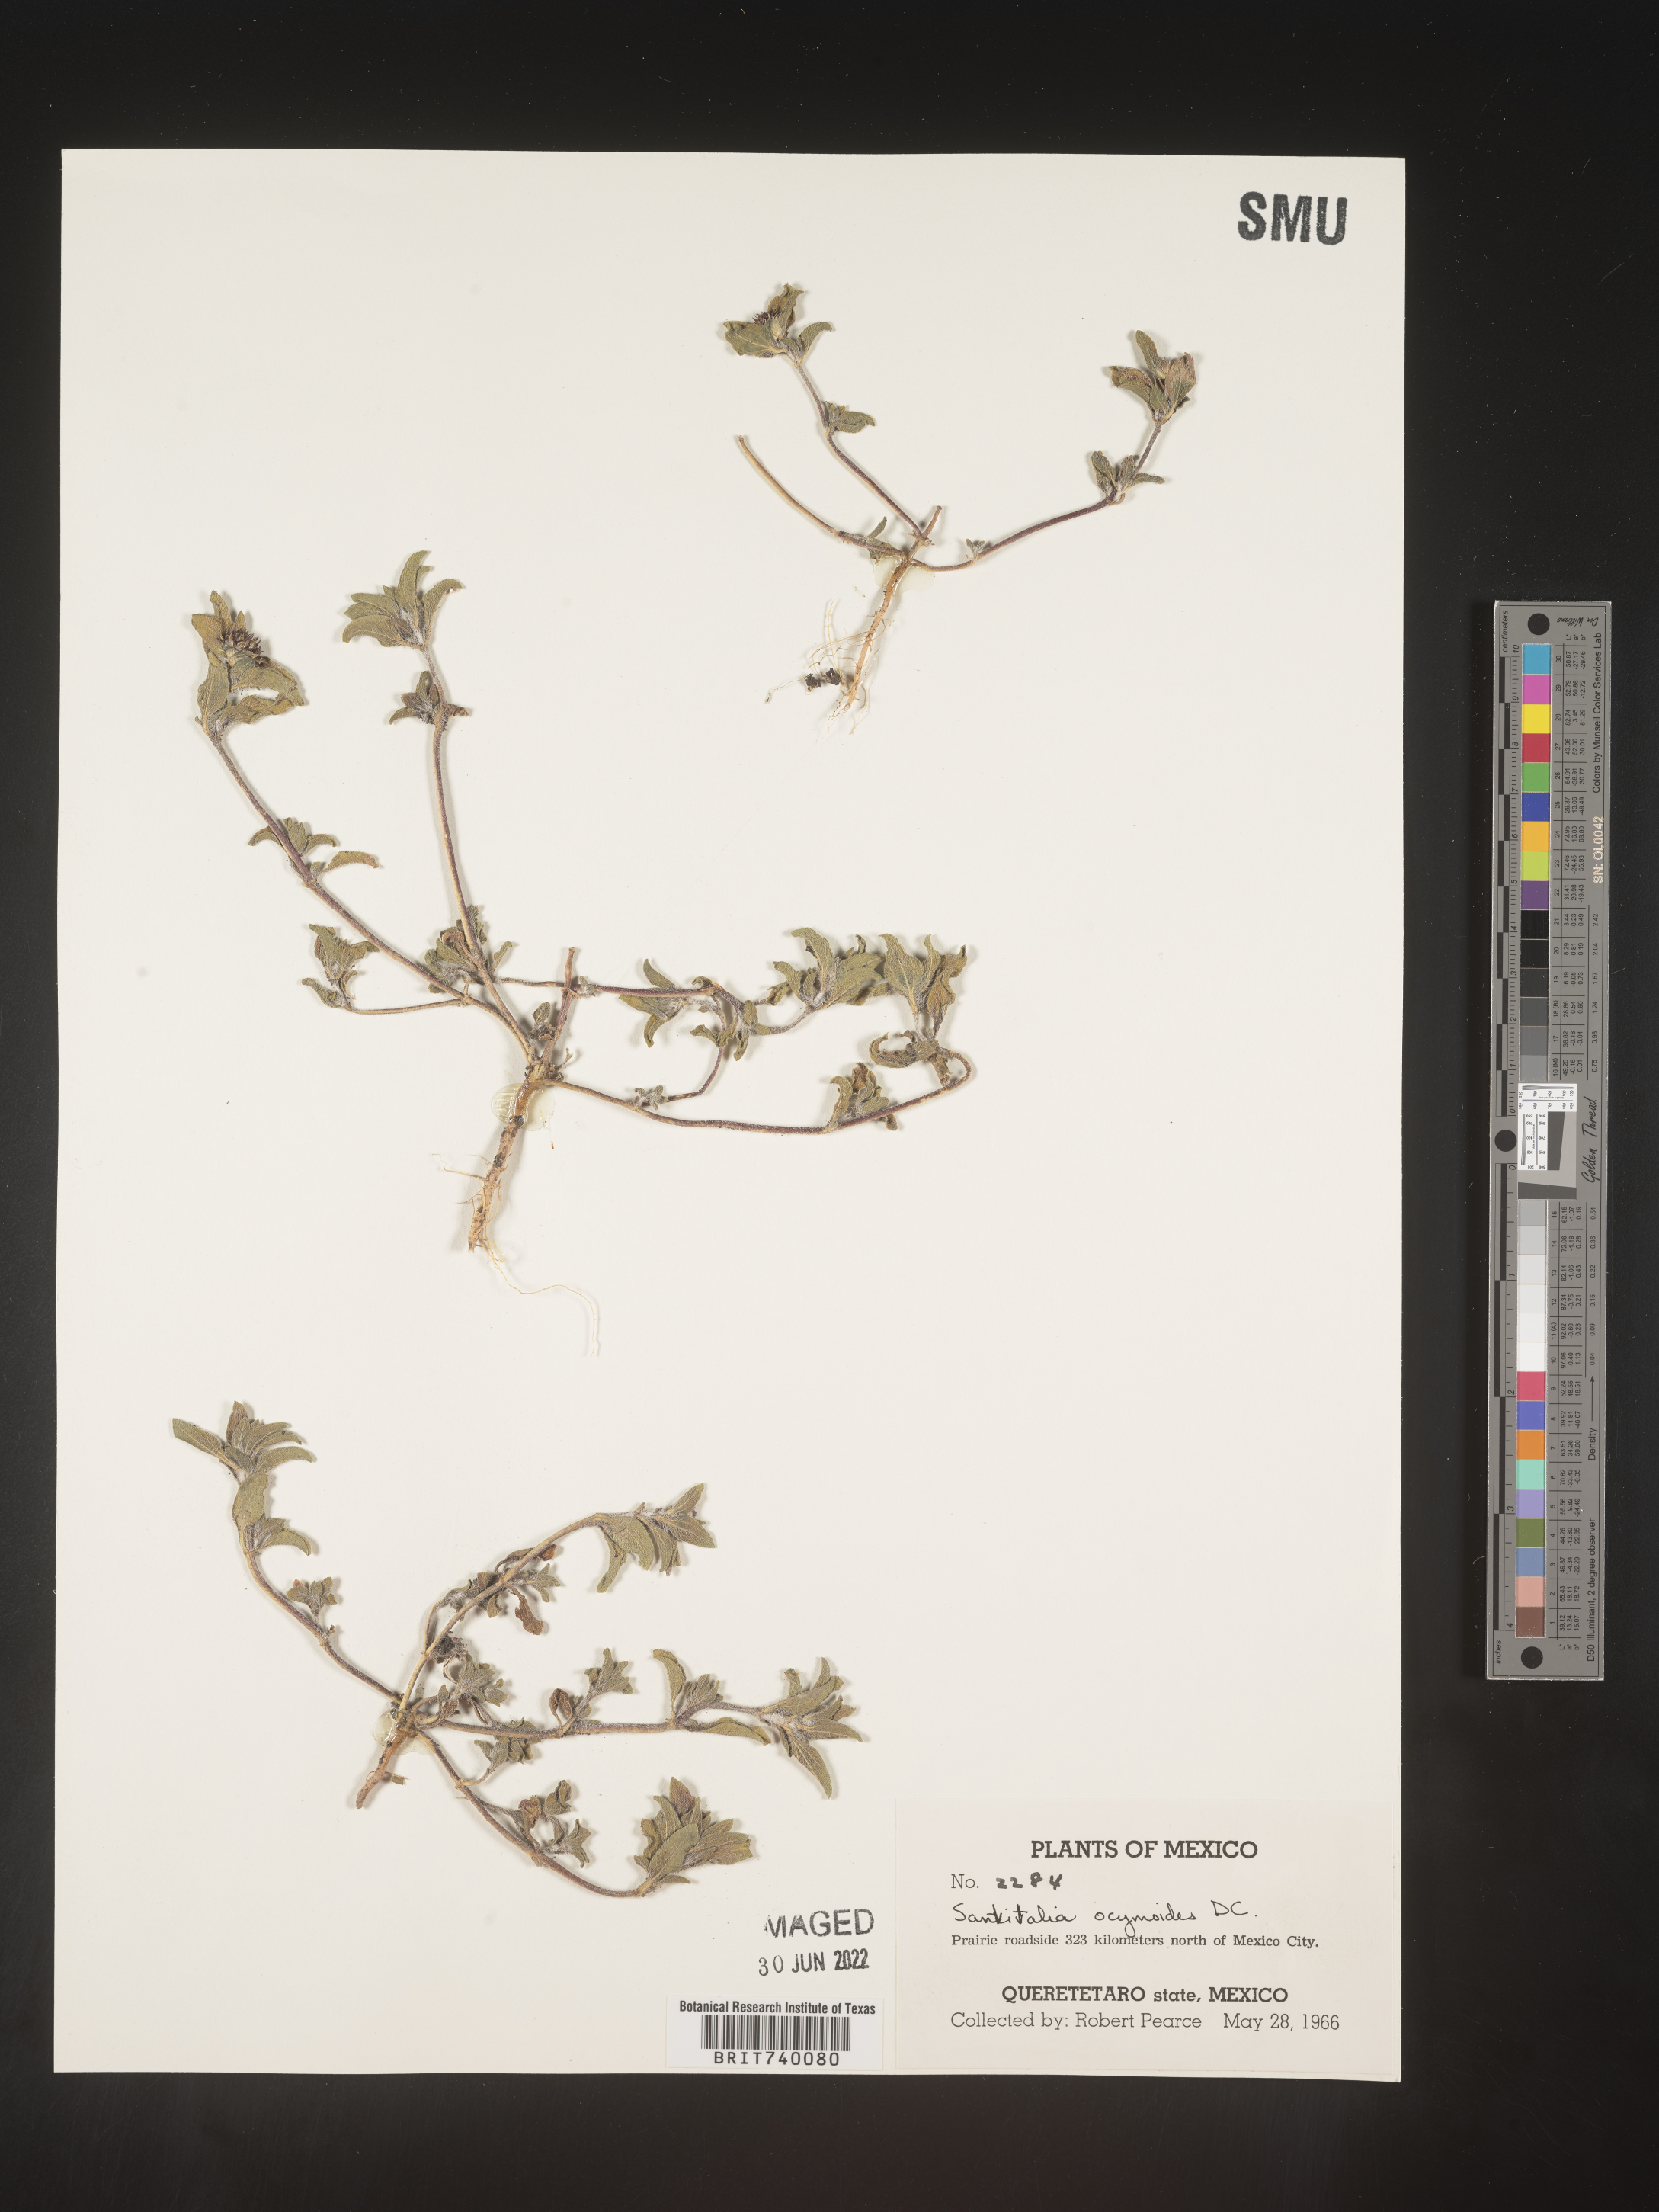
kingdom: Plantae
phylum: Tracheophyta
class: Magnoliopsida
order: Asterales
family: Asteraceae
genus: Sanvitalia
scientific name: Sanvitalia
